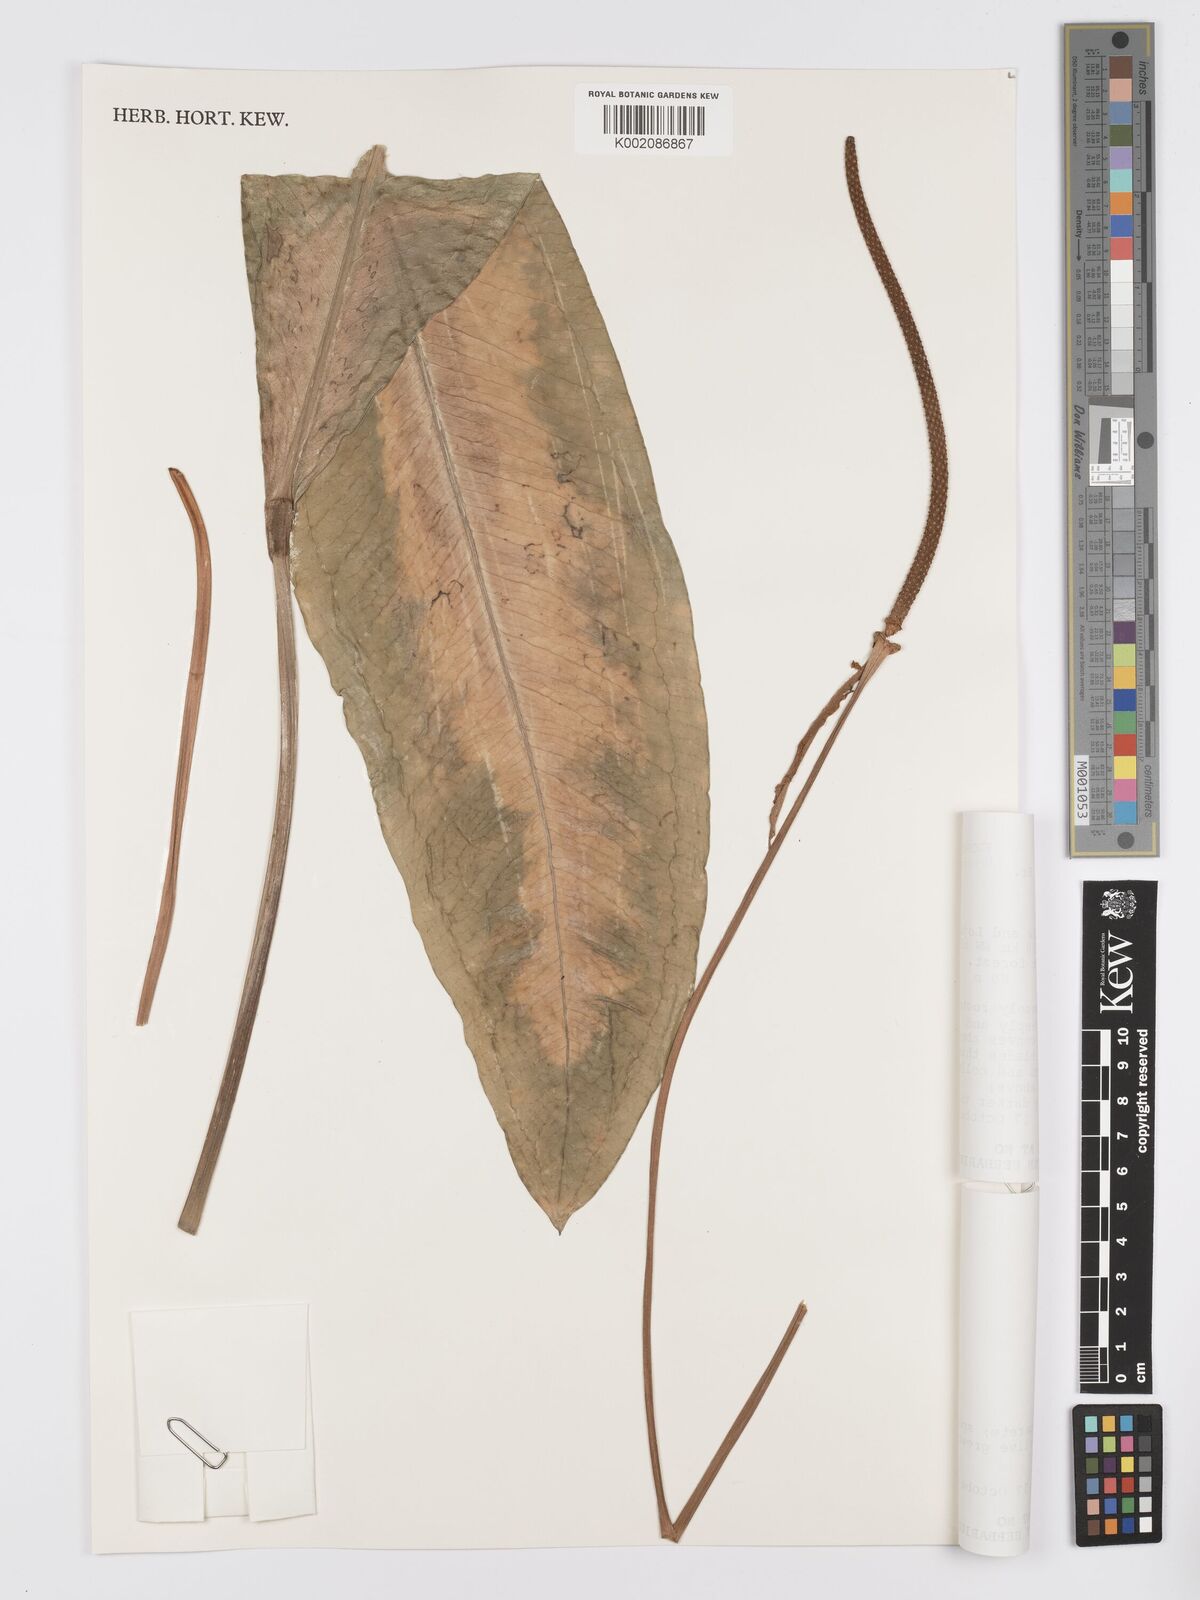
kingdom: Plantae
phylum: Tracheophyta
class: Liliopsida
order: Alismatales
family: Araceae
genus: Anthurium
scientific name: Anthurium punctatum
